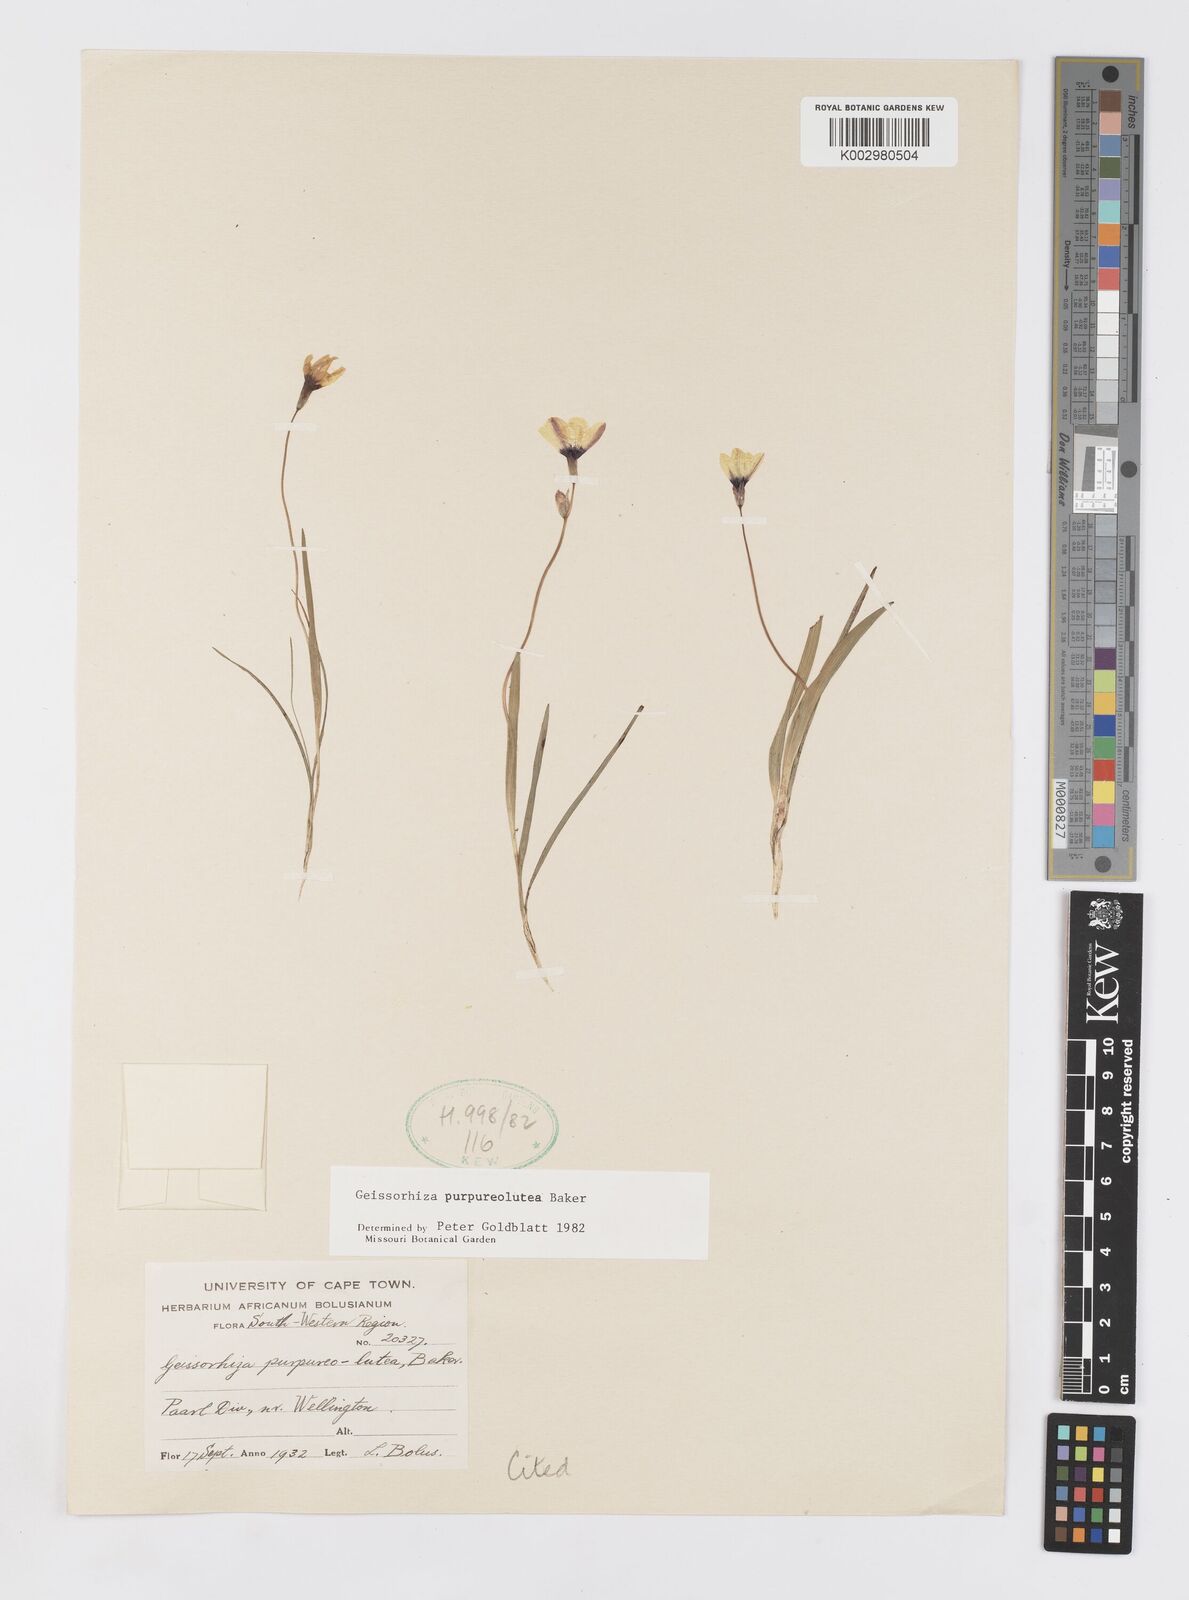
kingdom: Plantae
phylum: Tracheophyta
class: Liliopsida
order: Asparagales
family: Iridaceae
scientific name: Iridaceae
